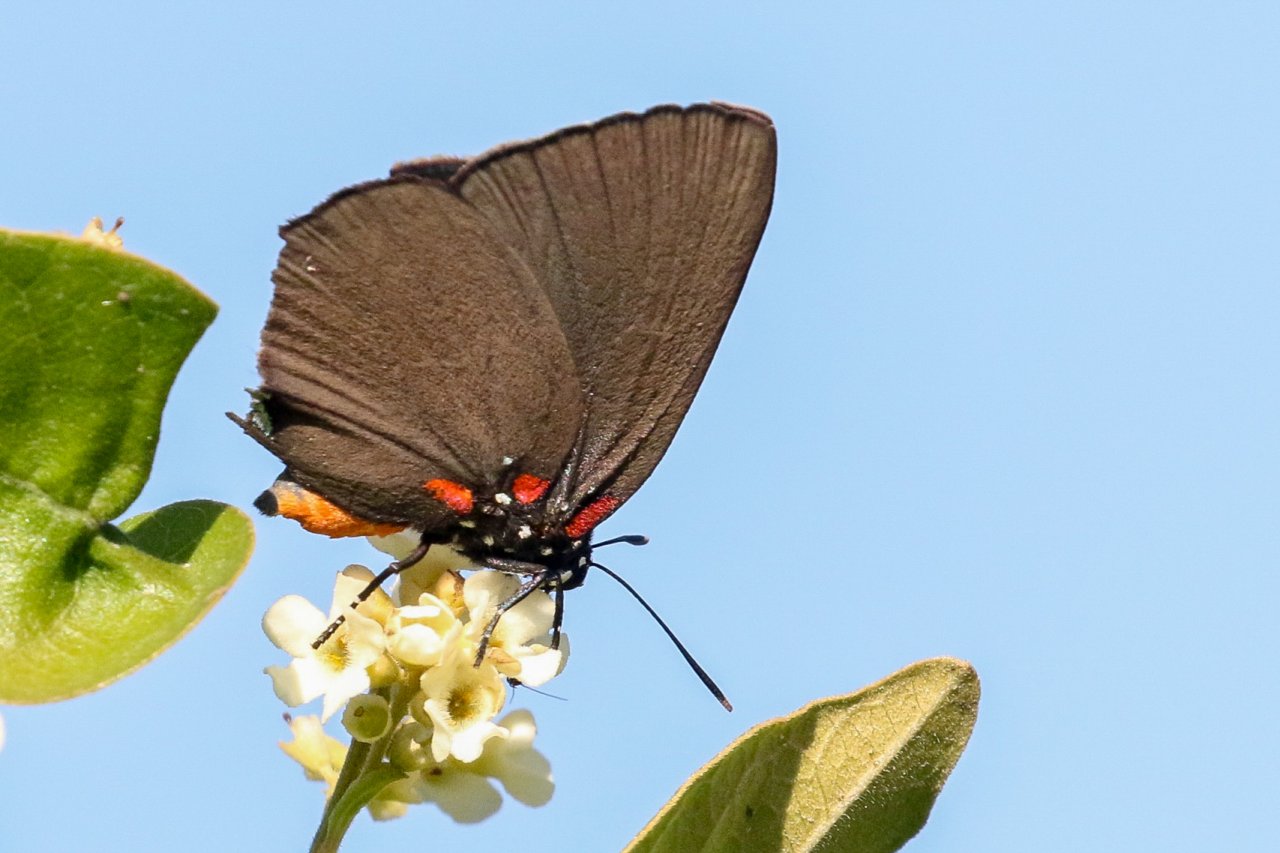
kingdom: Animalia
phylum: Arthropoda
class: Insecta
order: Lepidoptera
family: Lycaenidae
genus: Atlides
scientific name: Atlides halesus
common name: Great Purple Hairstreak
